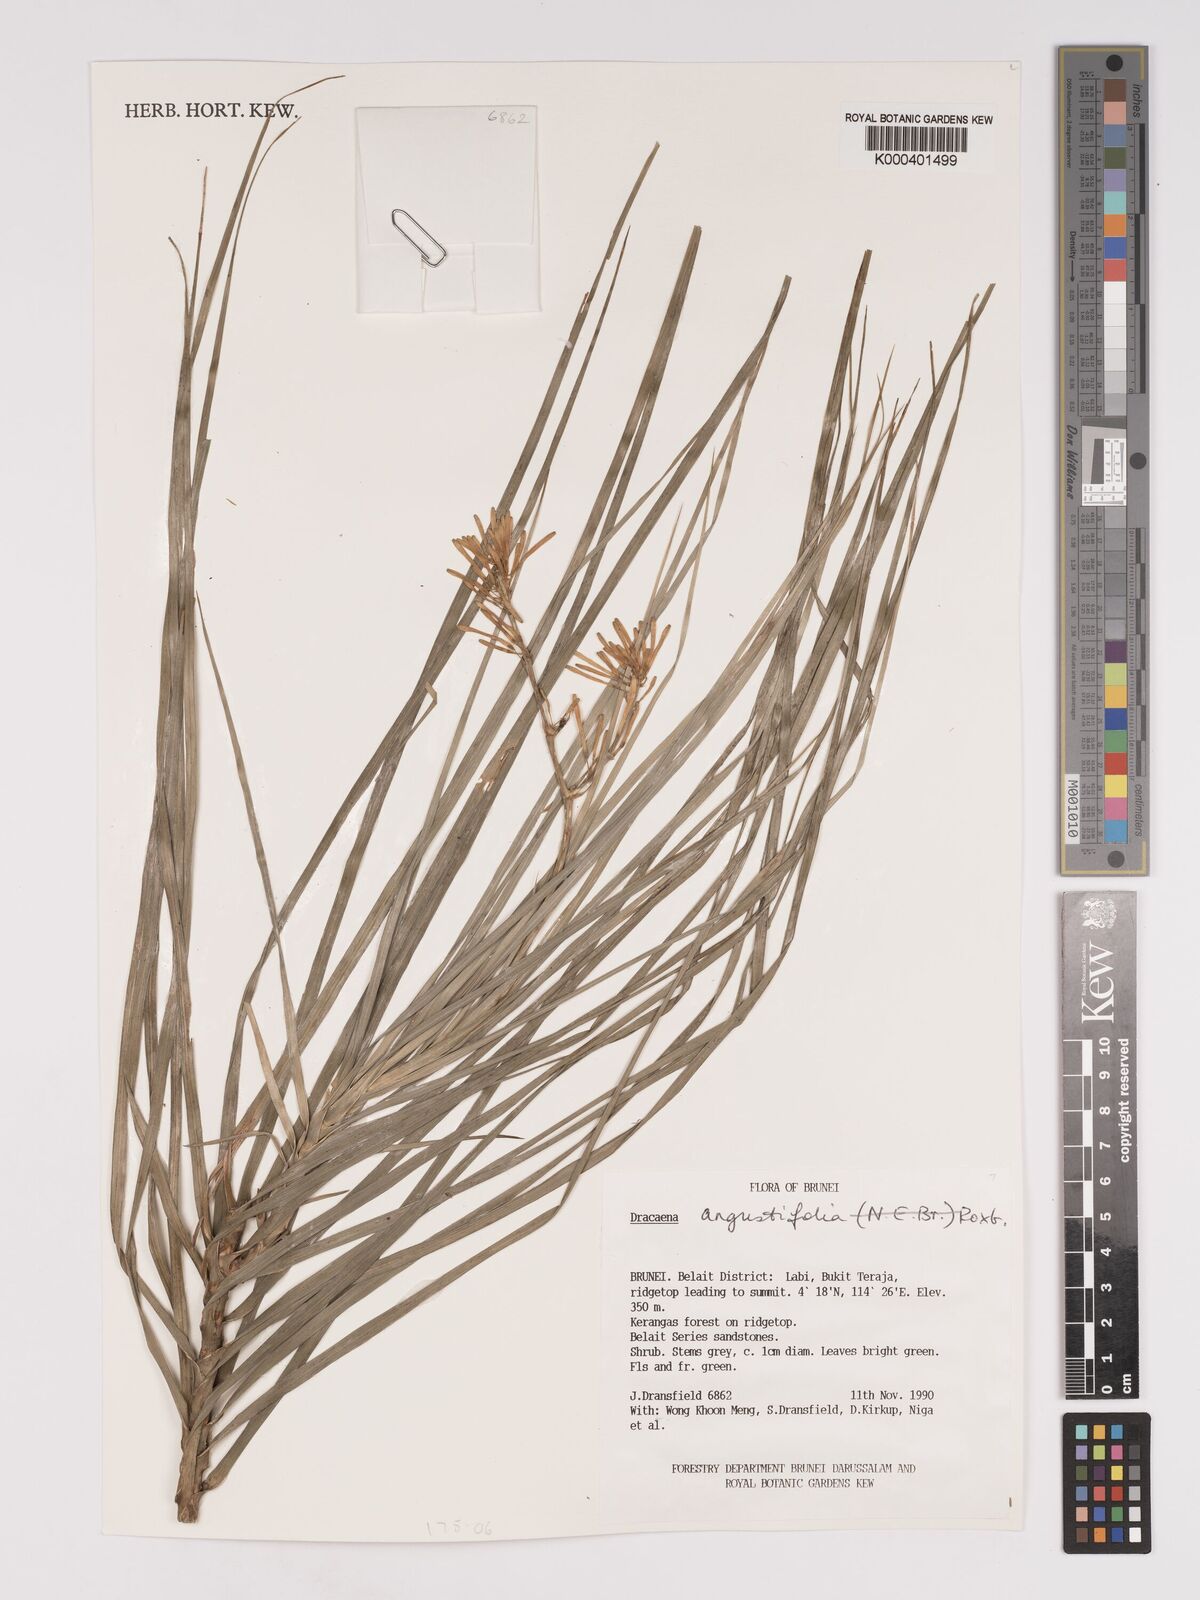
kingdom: Plantae
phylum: Tracheophyta
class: Liliopsida
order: Asparagales
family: Asparagaceae
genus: Dracaena
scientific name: Dracaena angustifolia
